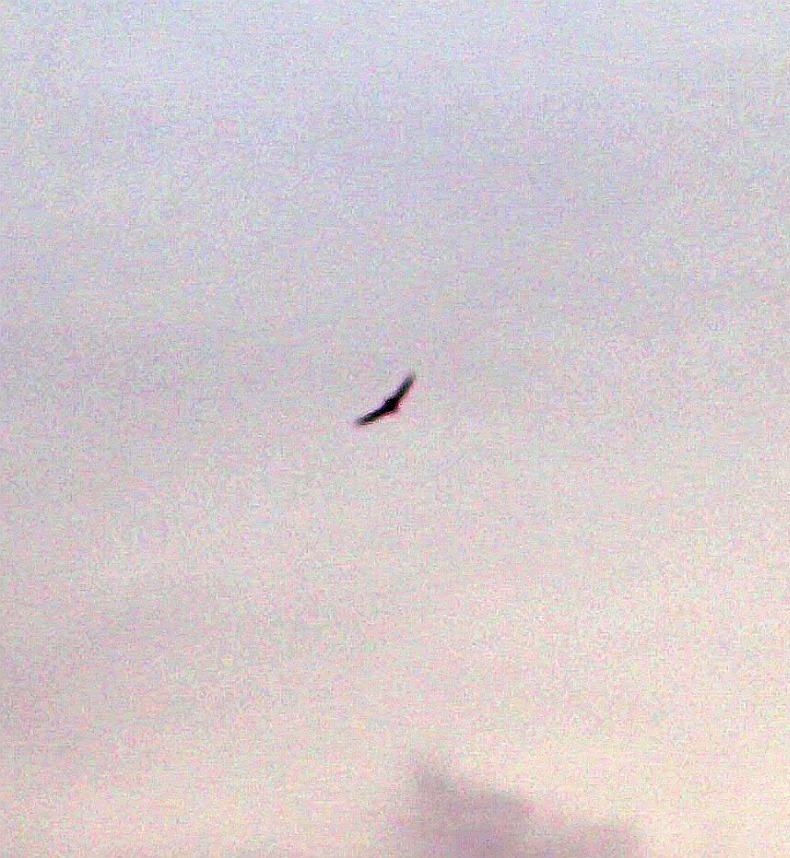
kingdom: Animalia
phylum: Chordata
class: Aves
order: Apodiformes
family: Apodidae
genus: Apus
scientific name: Apus apus
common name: Mursejler
